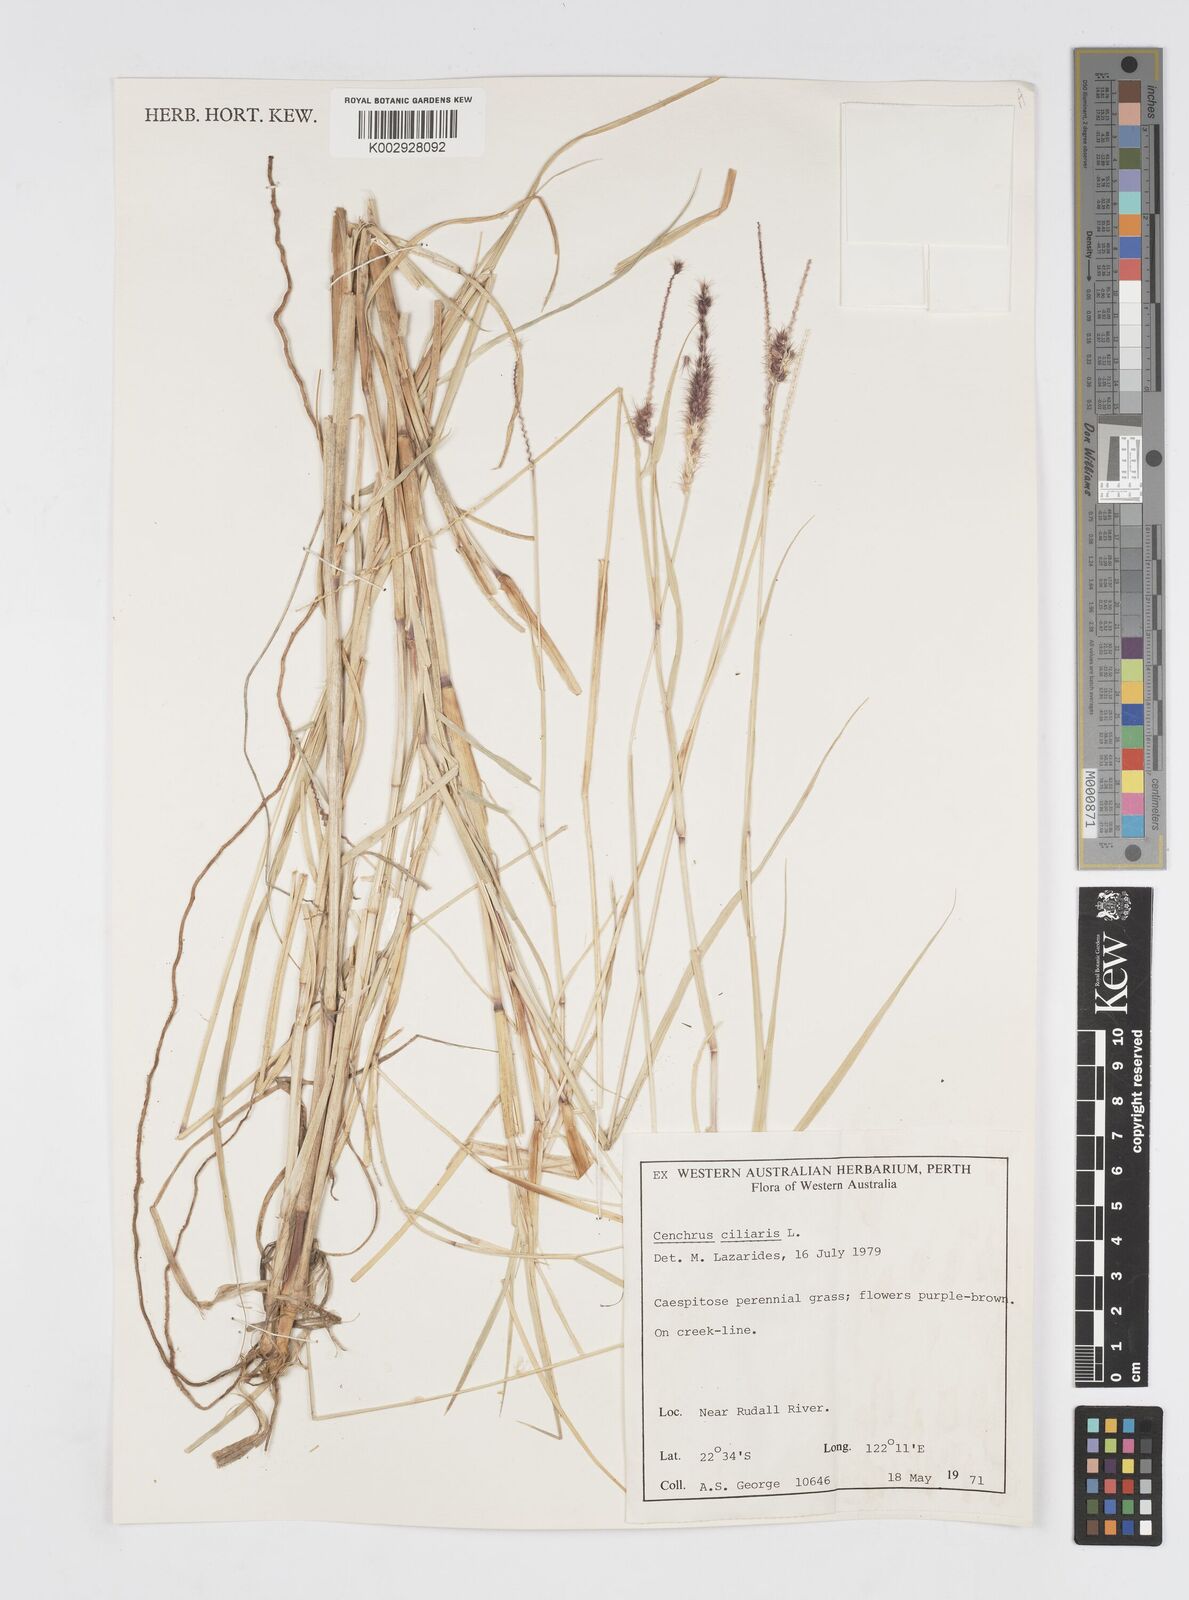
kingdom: Plantae
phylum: Tracheophyta
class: Liliopsida
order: Poales
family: Poaceae
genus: Cenchrus
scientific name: Cenchrus ciliaris
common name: Buffelgrass
